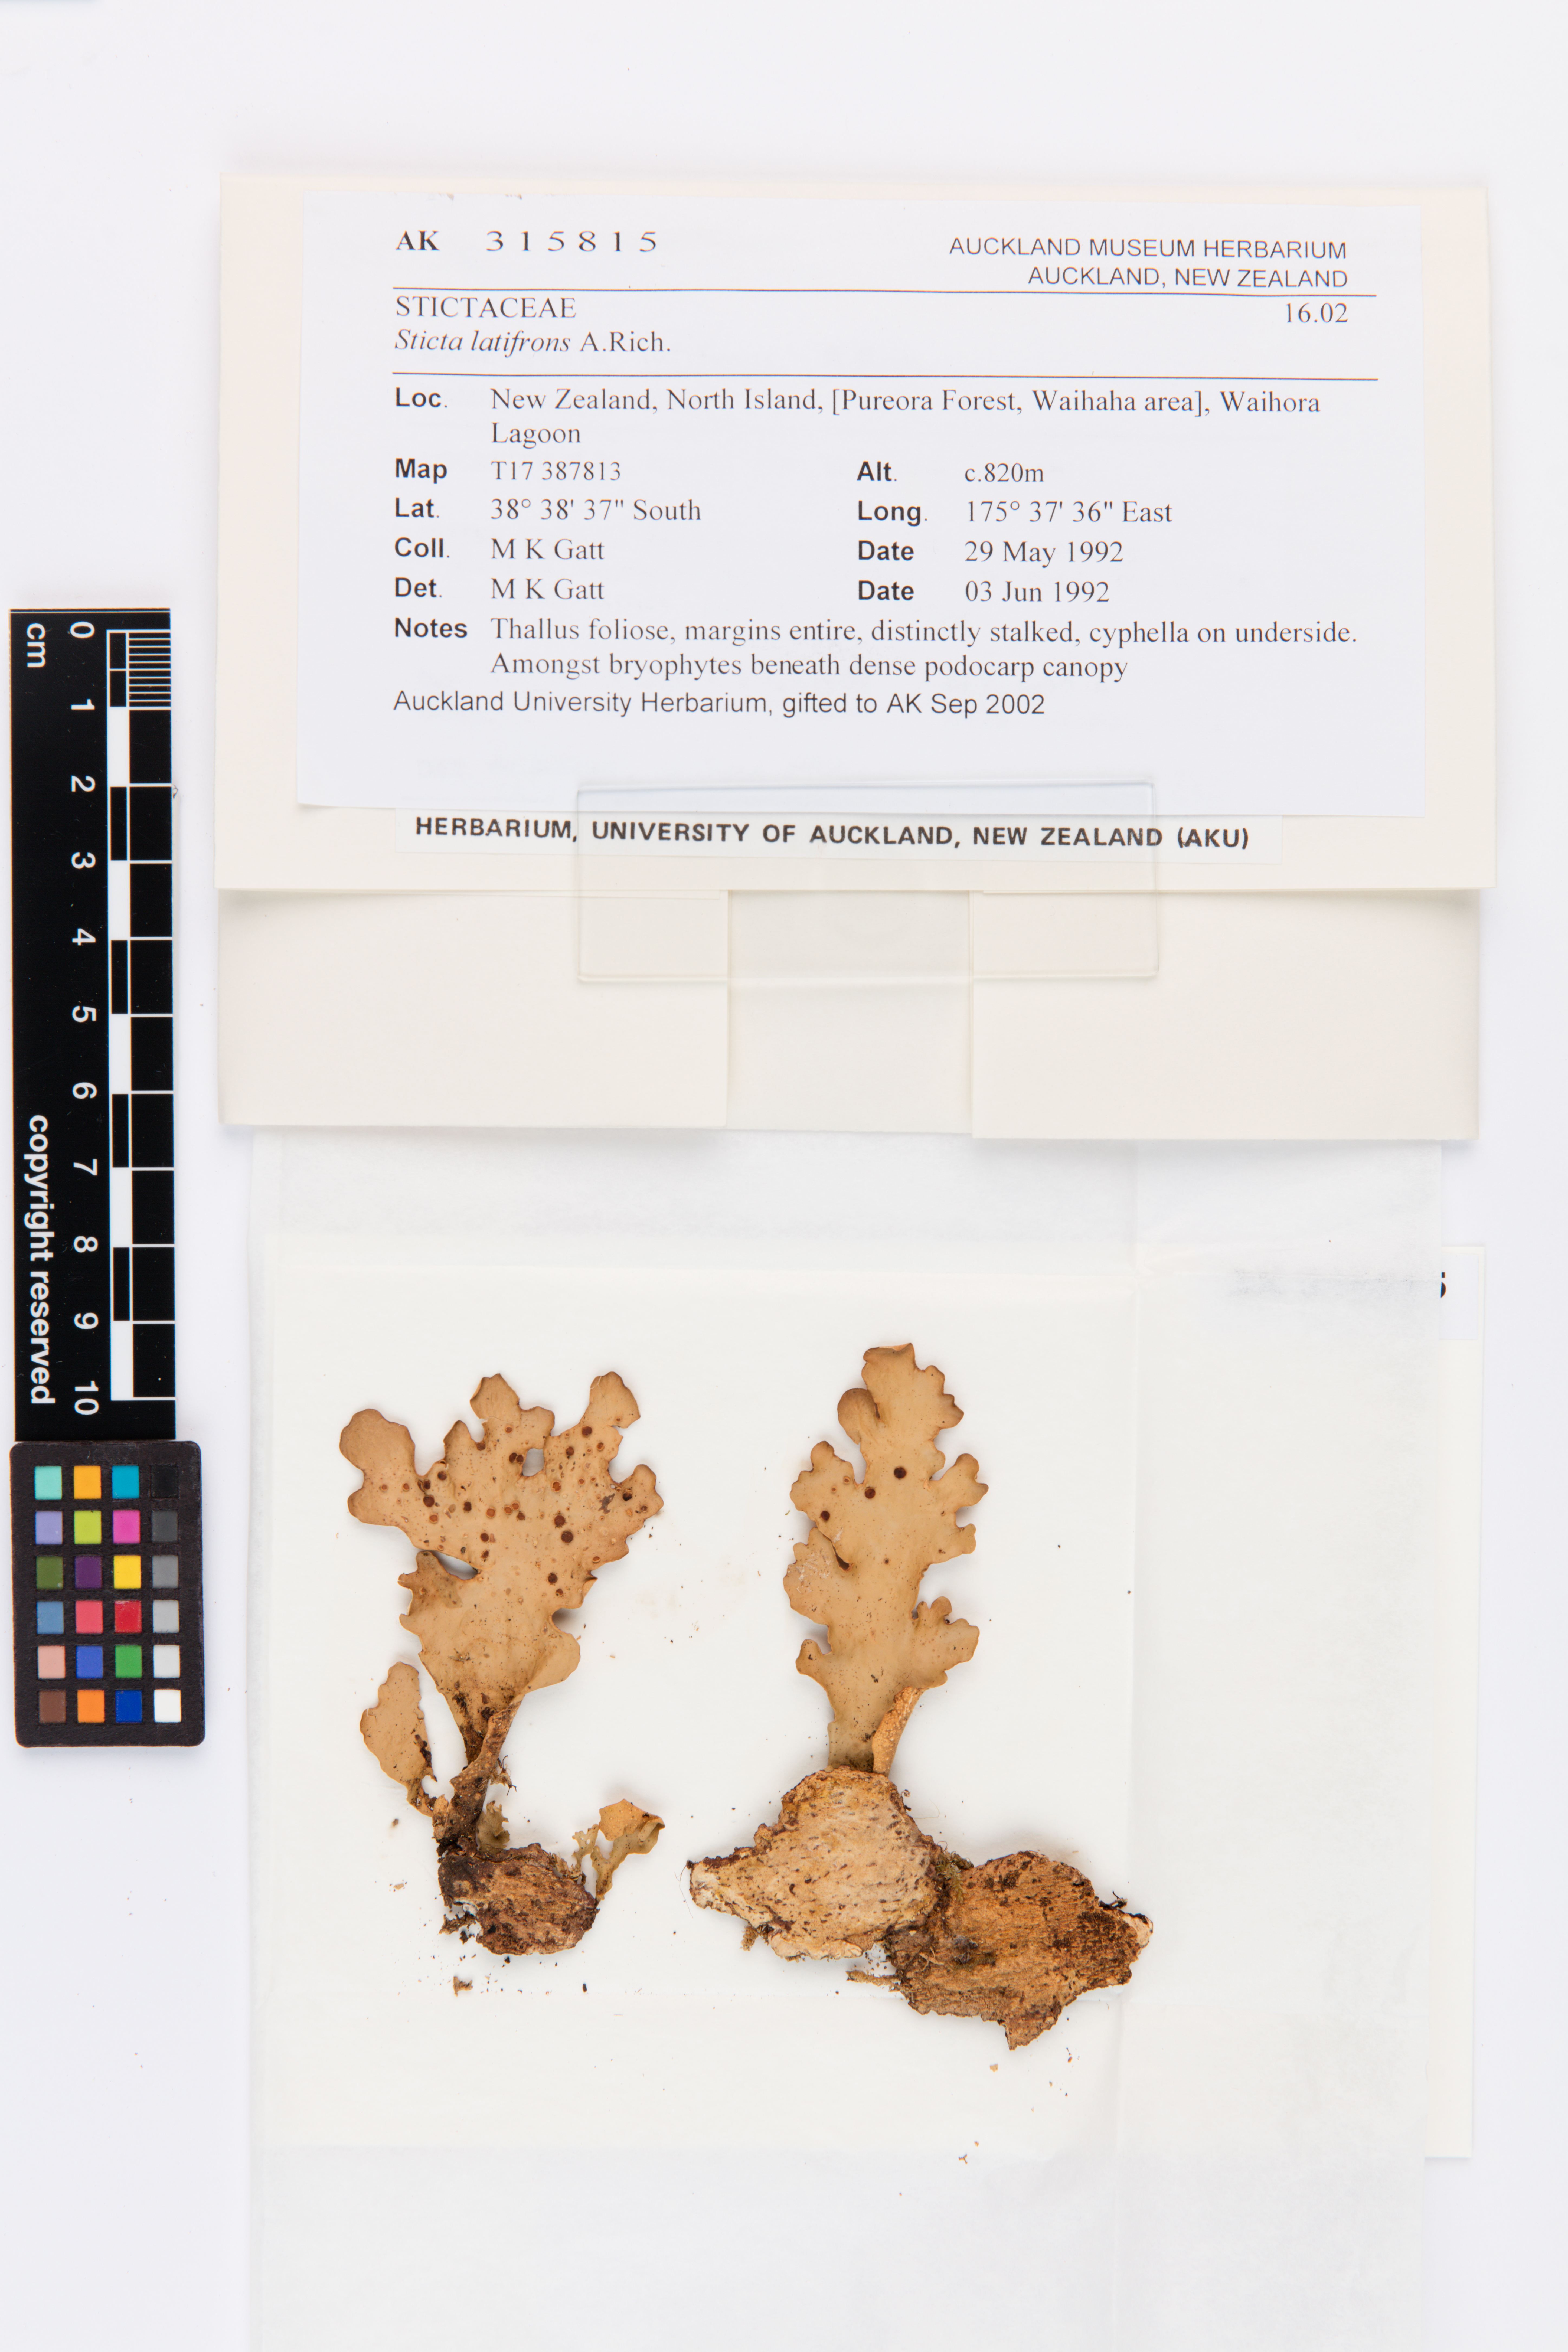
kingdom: Fungi
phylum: Ascomycota
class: Lecanoromycetes
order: Peltigerales
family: Lobariaceae
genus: Sticta
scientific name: Sticta latifrons
